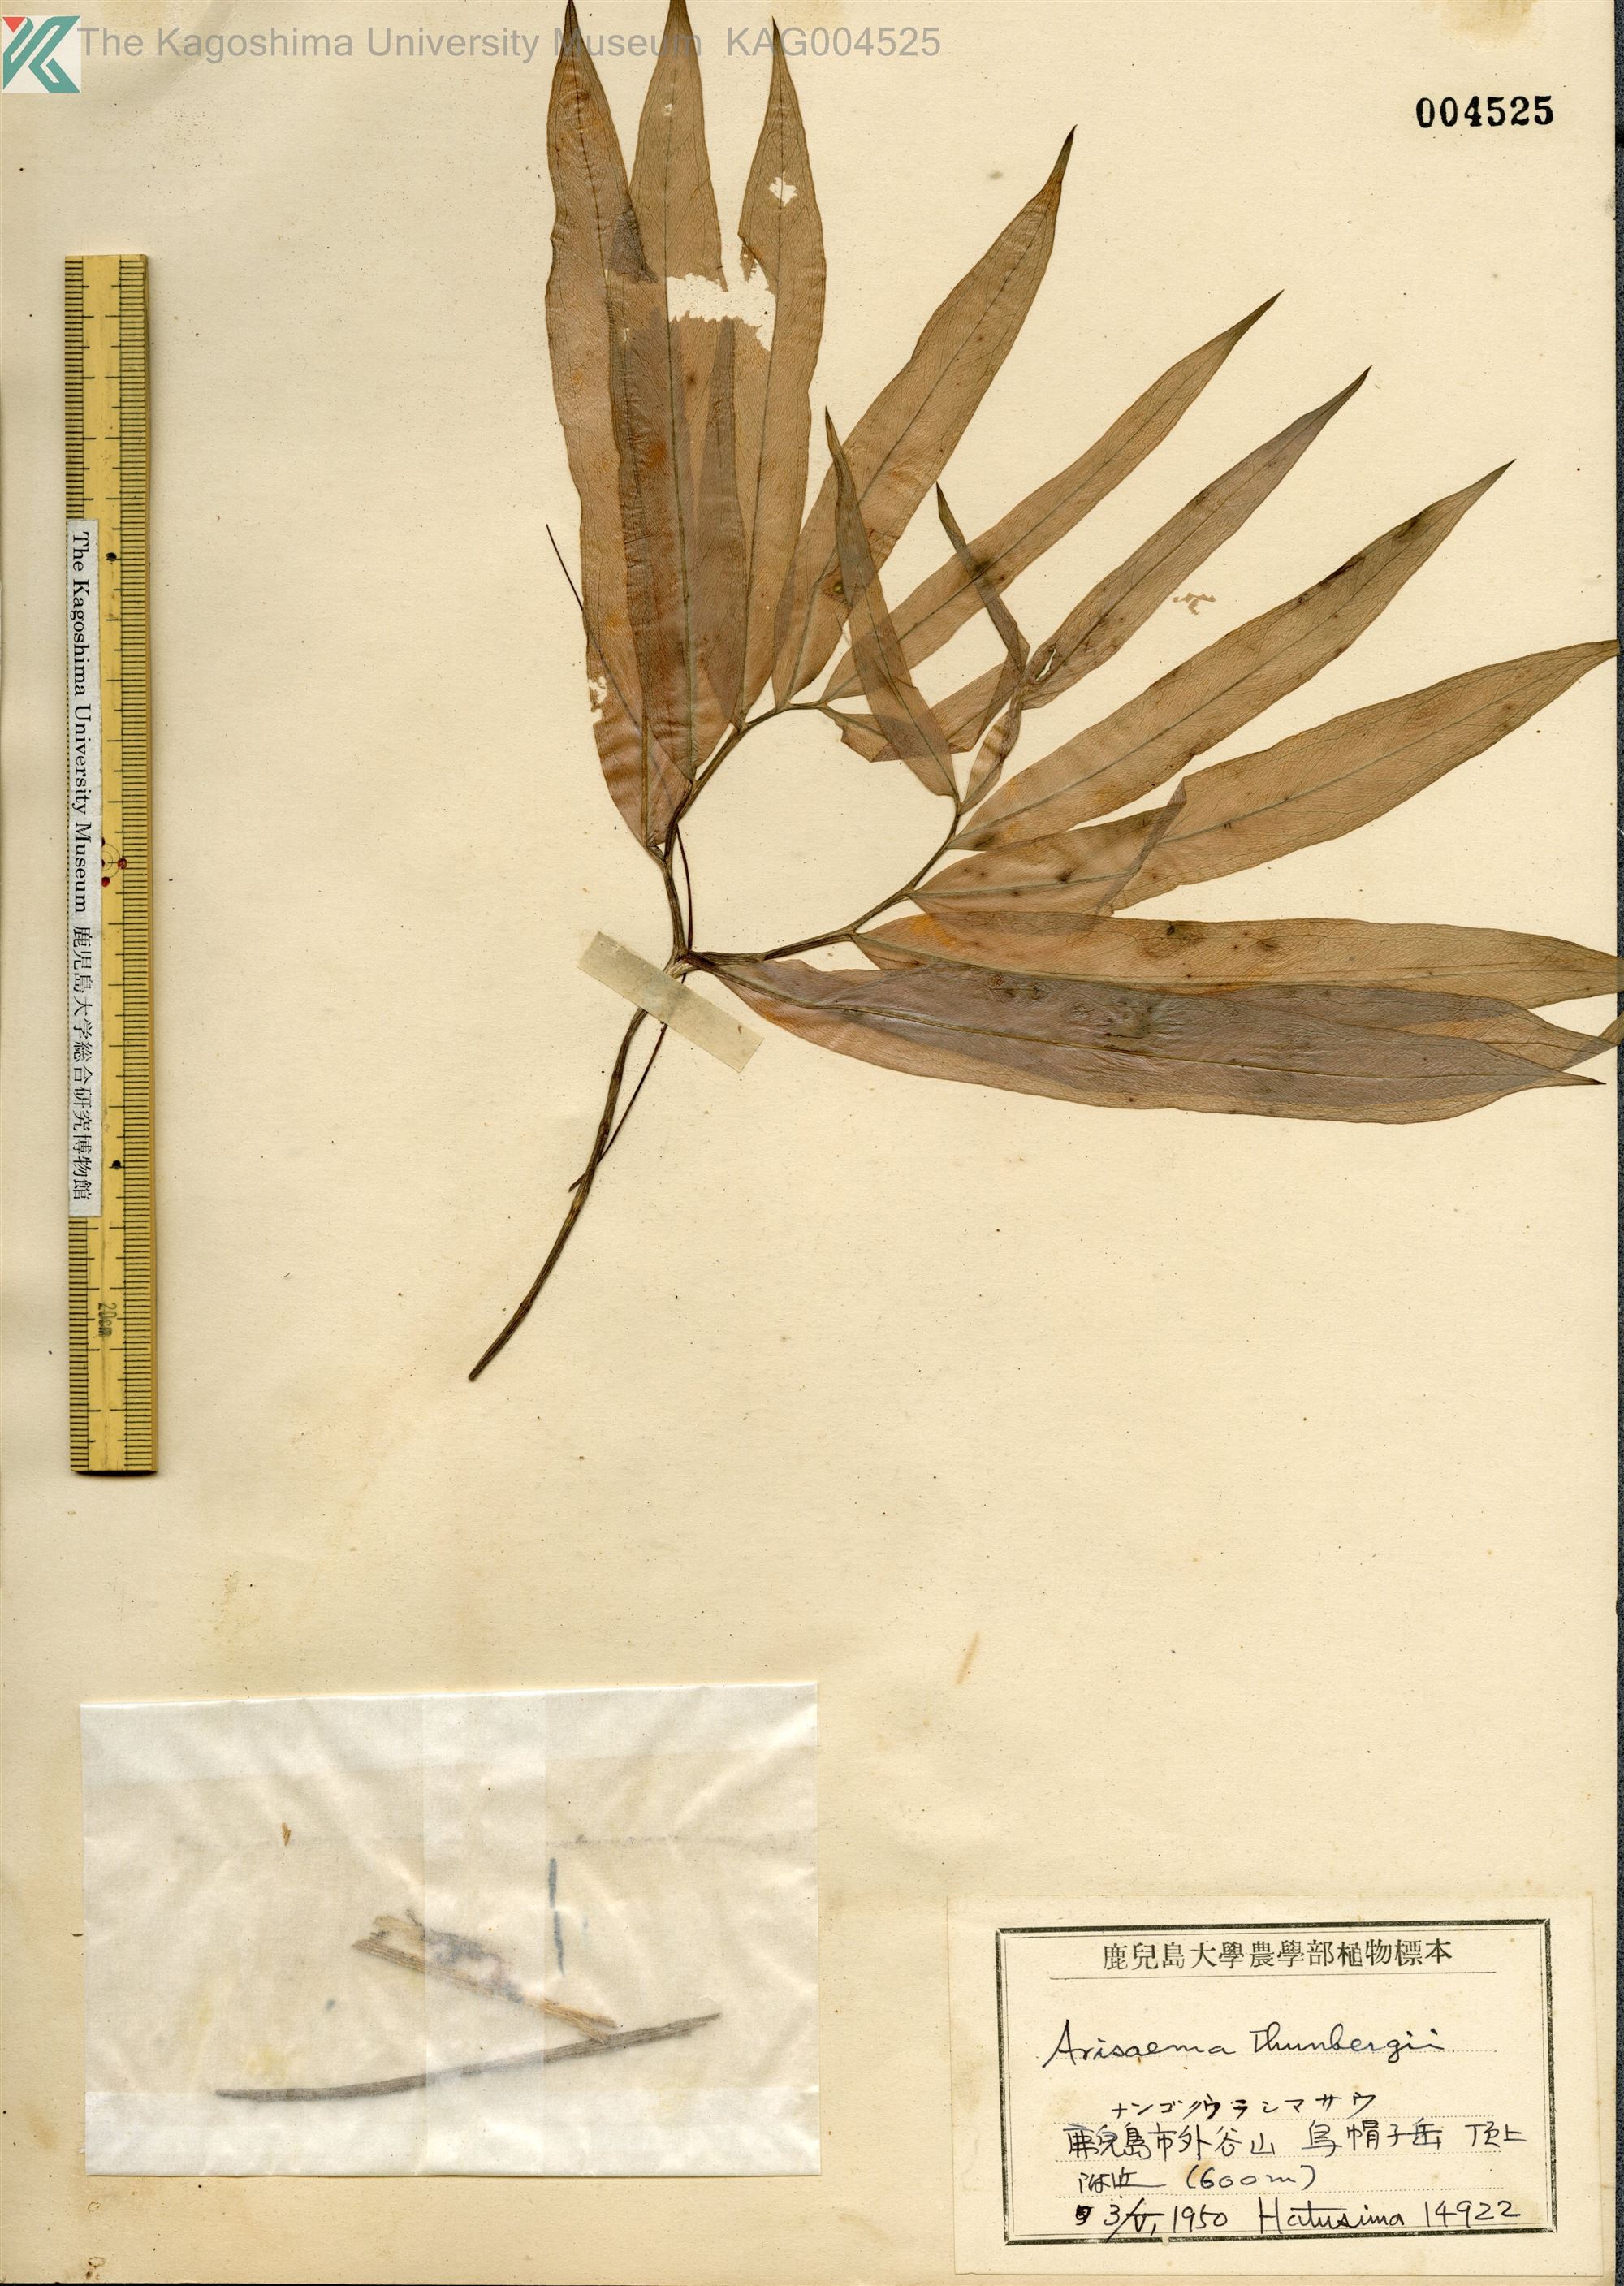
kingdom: Plantae
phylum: Tracheophyta
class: Liliopsida
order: Alismatales
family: Araceae
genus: Arisaema
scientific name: Arisaema thunbergii
